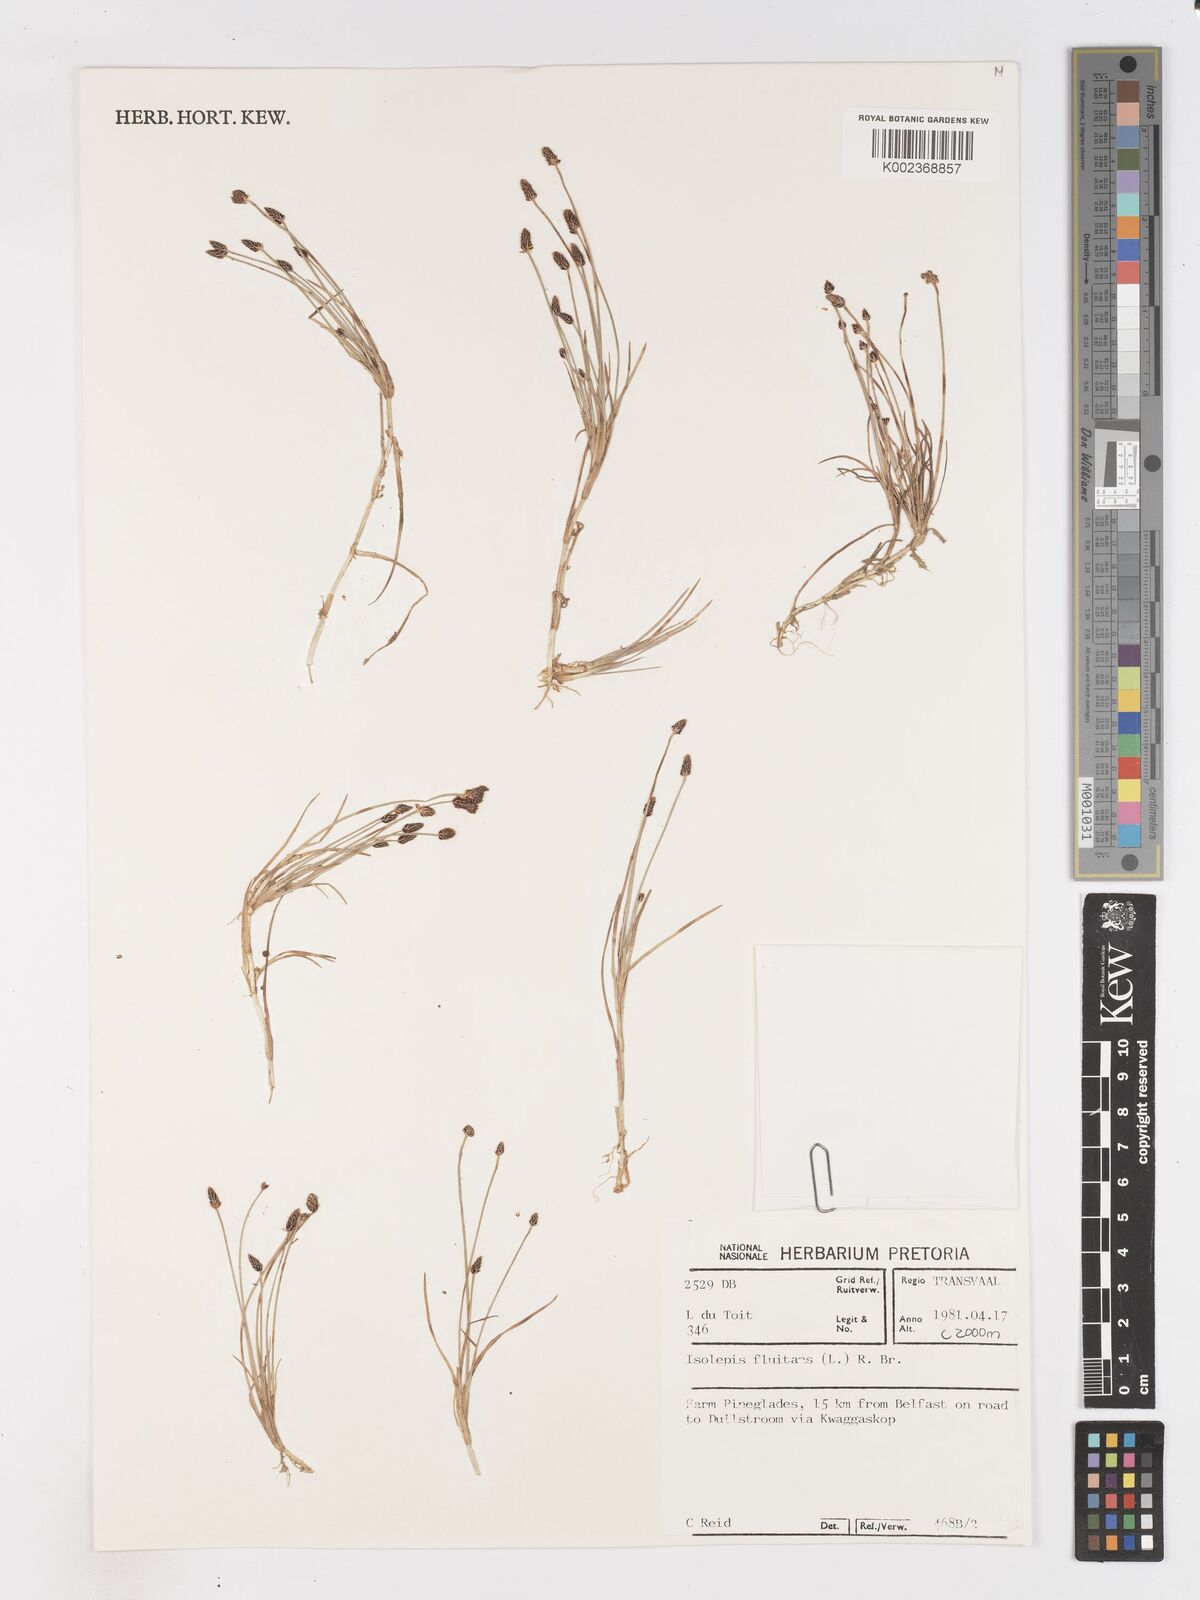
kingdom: Plantae
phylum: Tracheophyta
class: Liliopsida
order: Poales
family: Cyperaceae
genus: Isolepis
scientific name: Isolepis fluitans
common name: Floating club-rush
